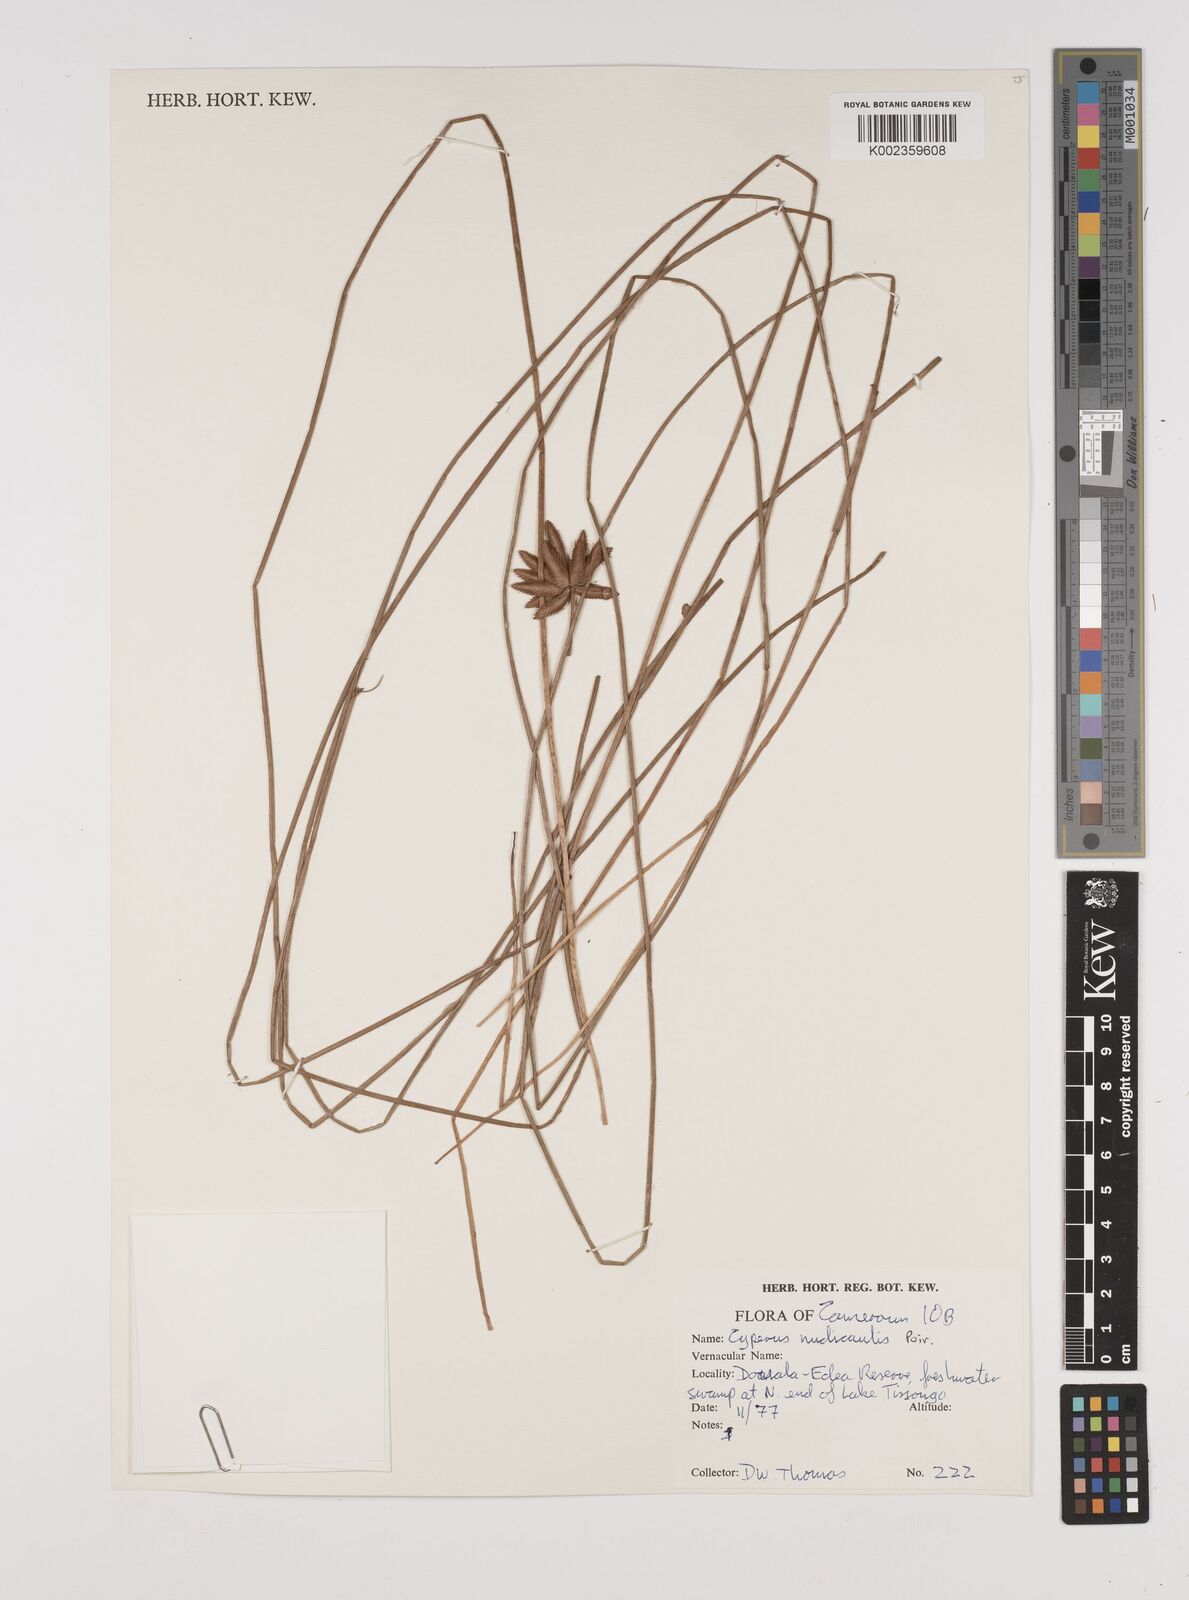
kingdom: Plantae
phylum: Tracheophyta
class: Liliopsida
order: Poales
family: Cyperaceae
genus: Cyperus
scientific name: Cyperus pectinatus
